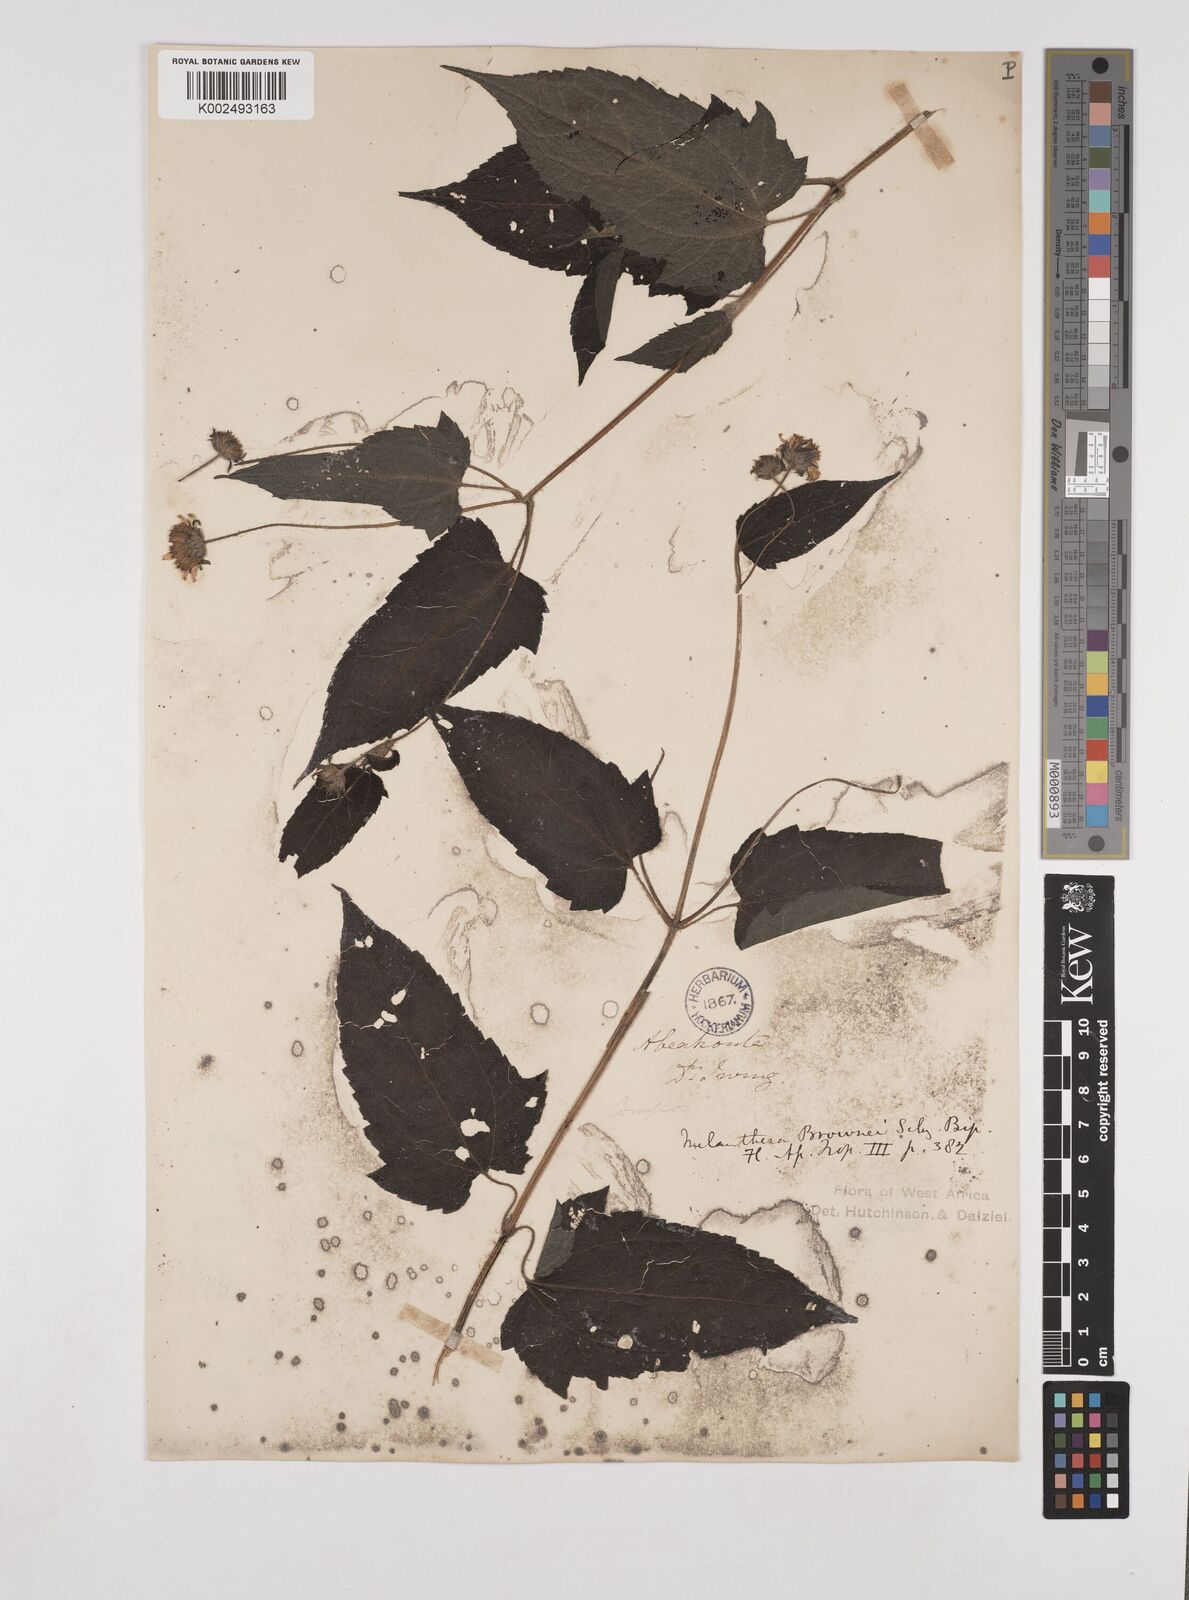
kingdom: Plantae
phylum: Tracheophyta
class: Magnoliopsida
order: Asterales
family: Asteraceae
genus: Lipotriche
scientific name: Lipotriche scandens
